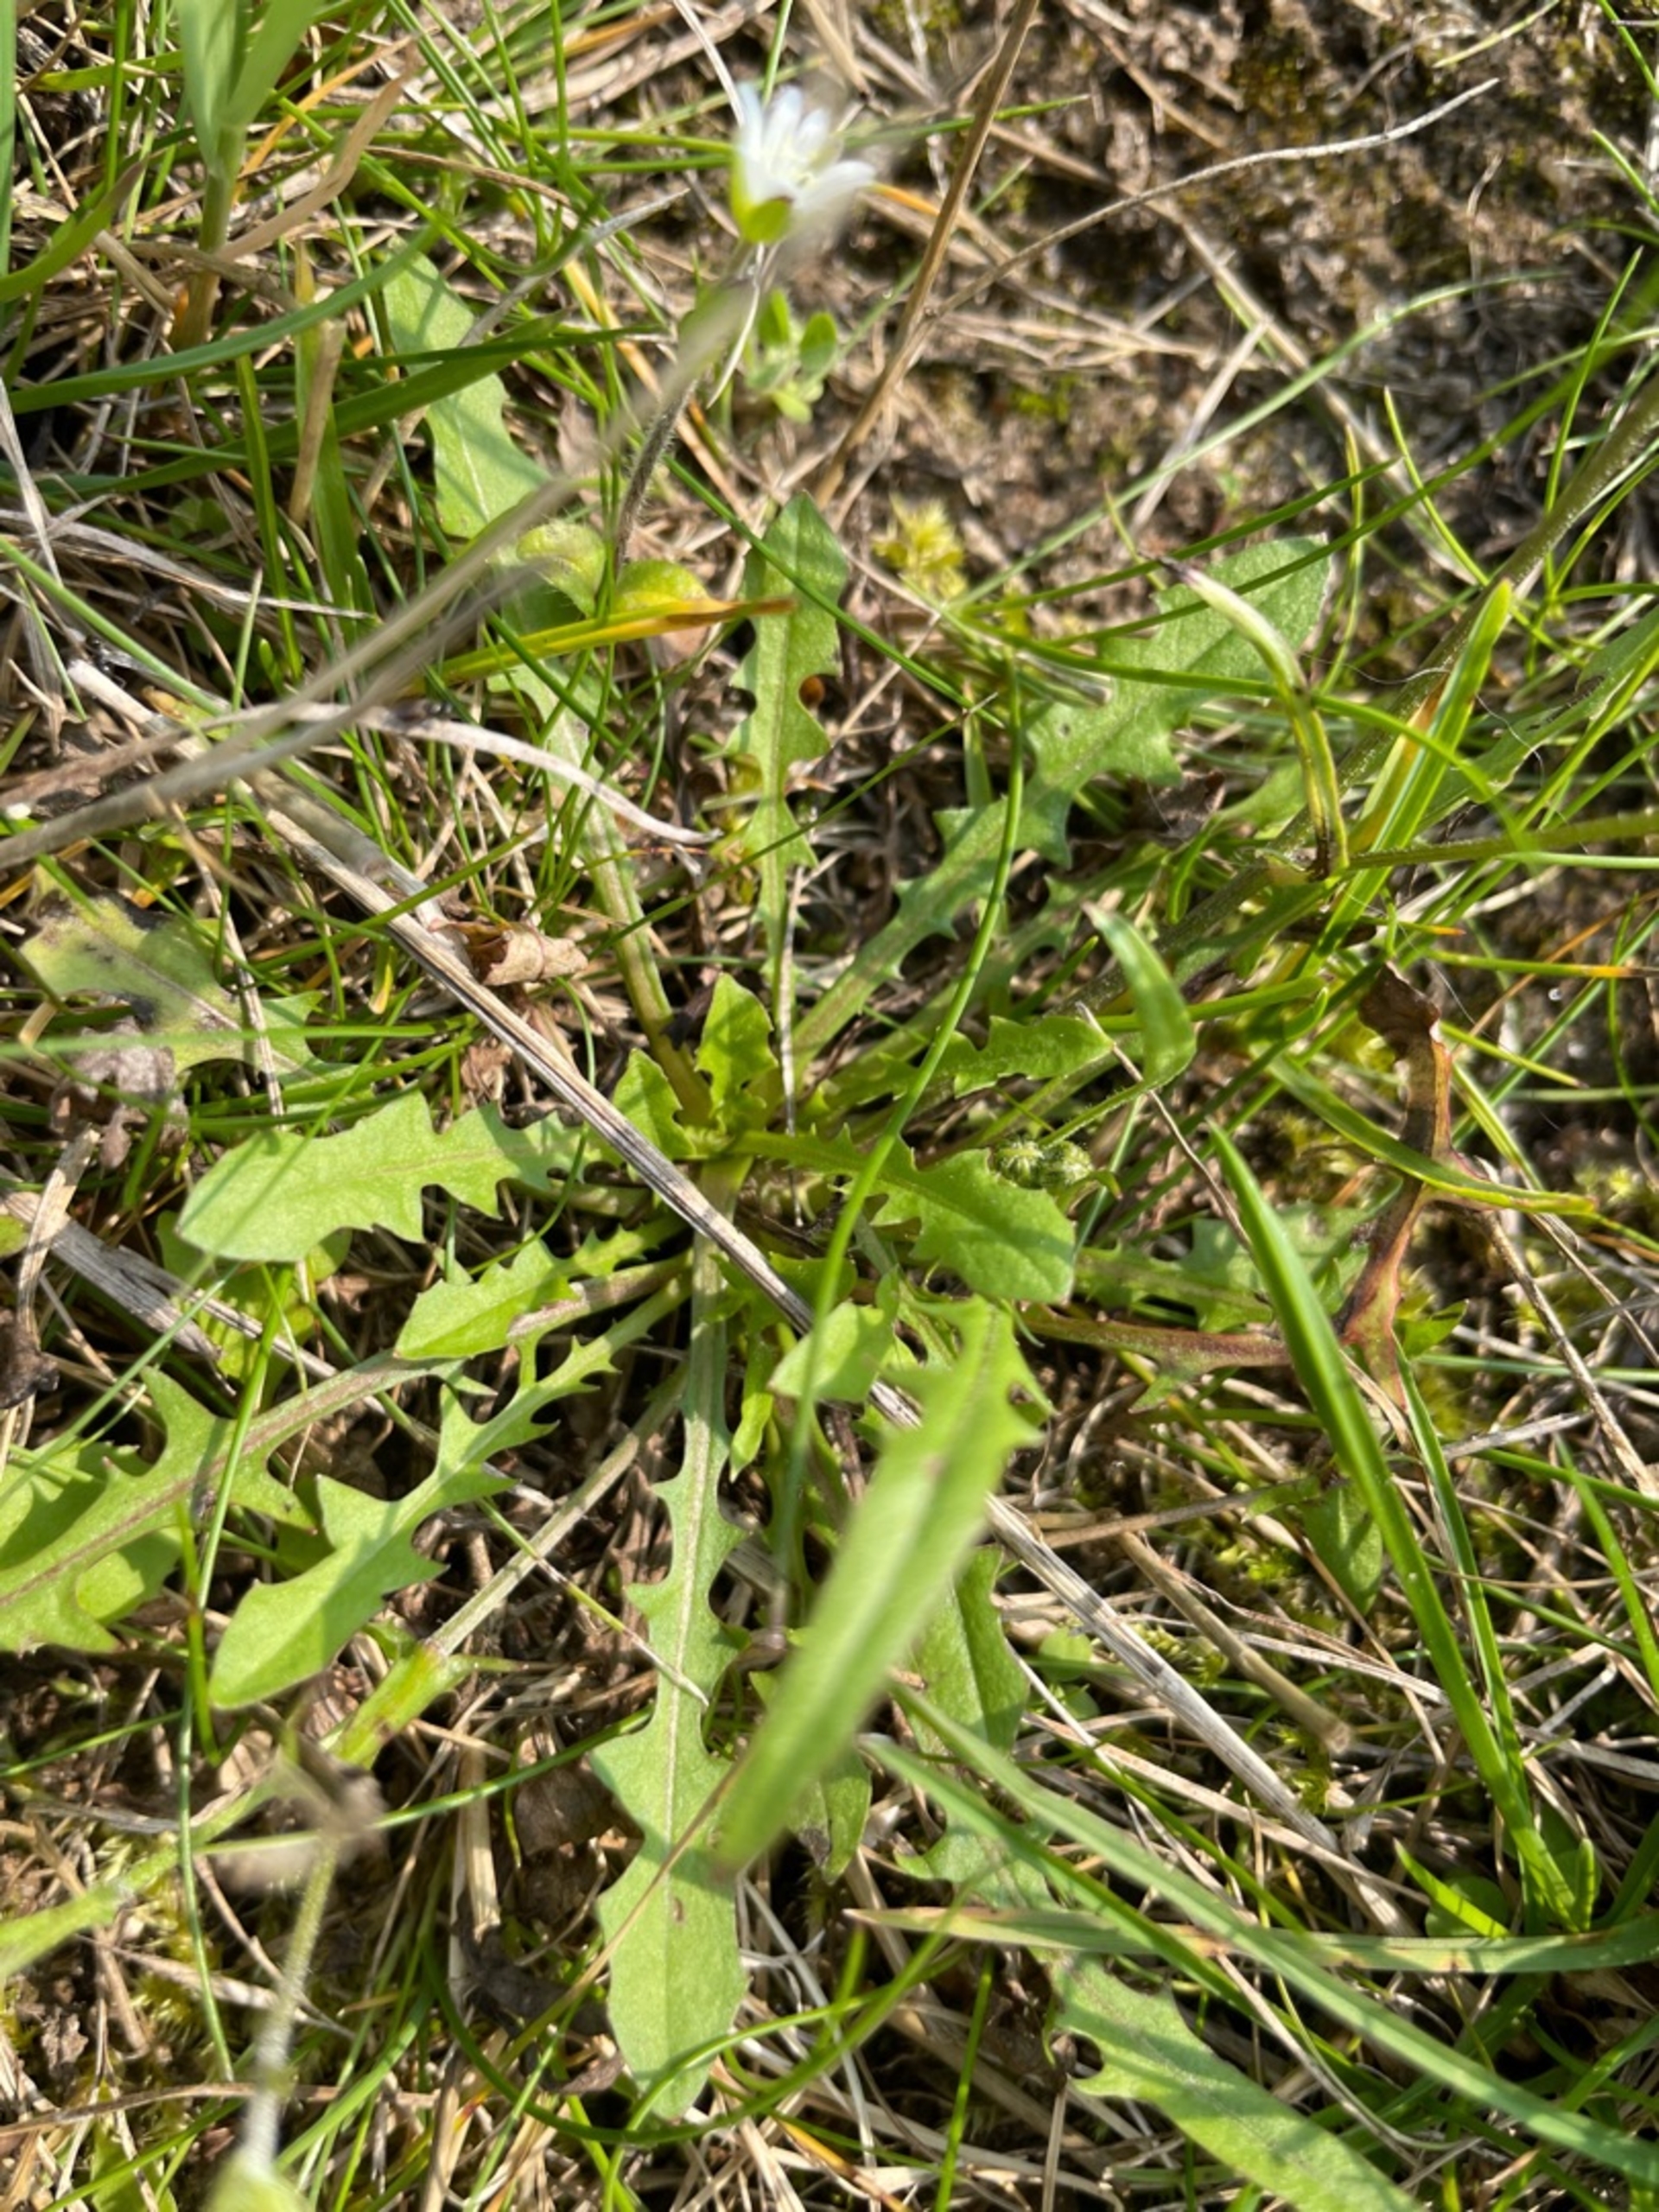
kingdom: Plantae
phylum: Tracheophyta
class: Magnoliopsida
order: Asterales
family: Asteraceae
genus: Crepis
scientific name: Crepis capillaris
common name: Grøn høgeskæg
